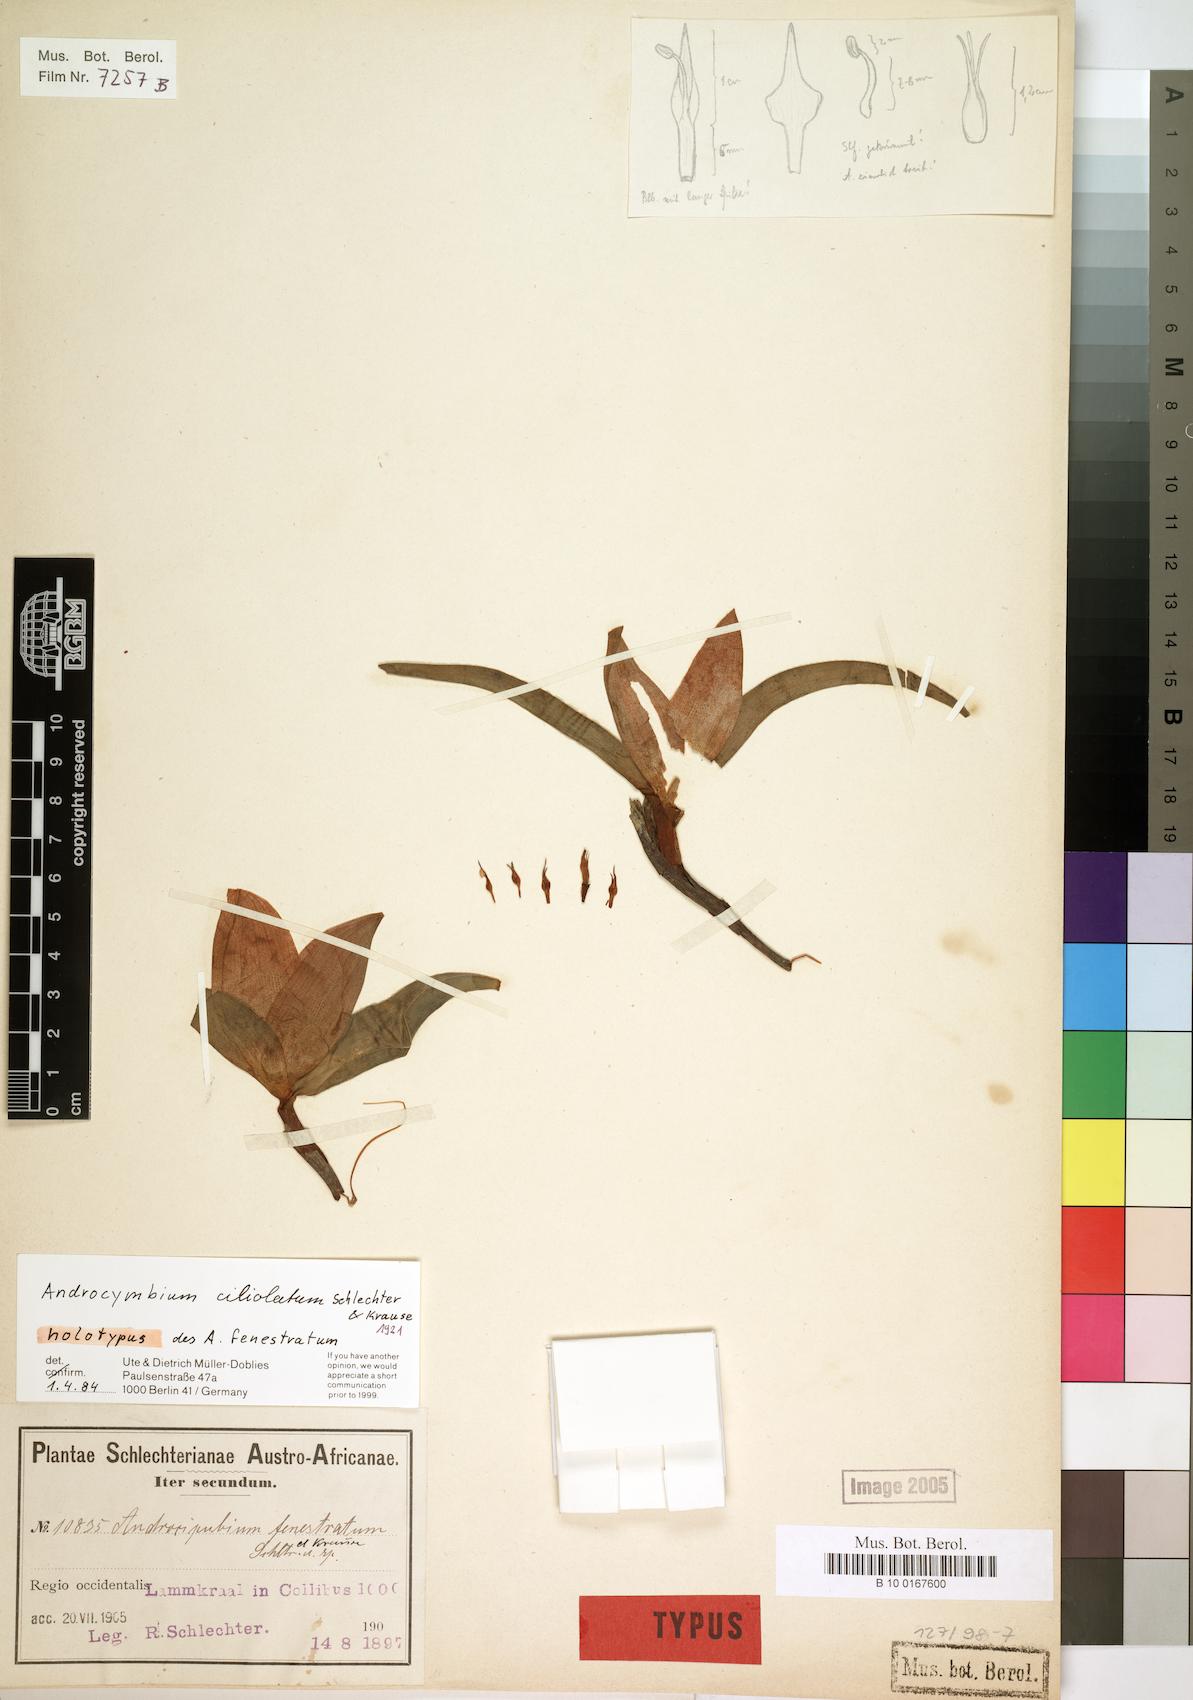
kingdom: Plantae
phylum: Tracheophyta
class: Liliopsida
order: Liliales
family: Colchicaceae
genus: Colchicum
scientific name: Colchicum capense
